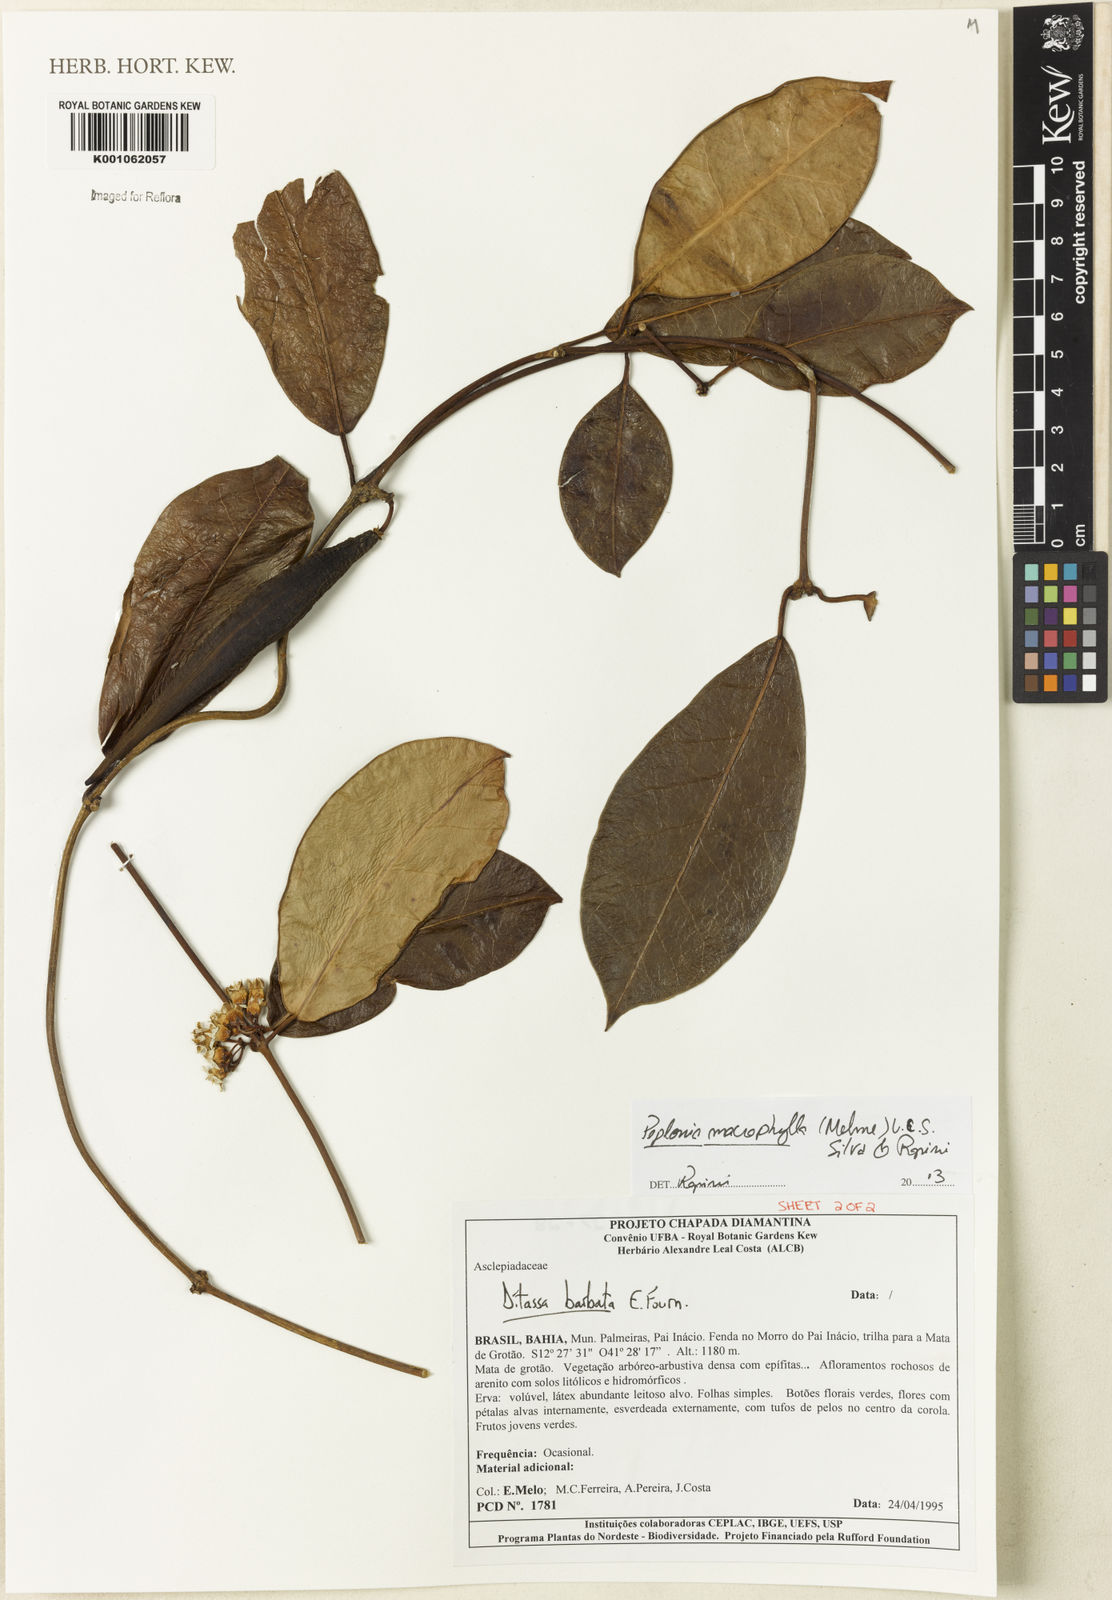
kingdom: Plantae
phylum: Tracheophyta
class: Magnoliopsida
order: Gentianales
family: Apocynaceae
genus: Peplonia
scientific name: Peplonia macrophylla
